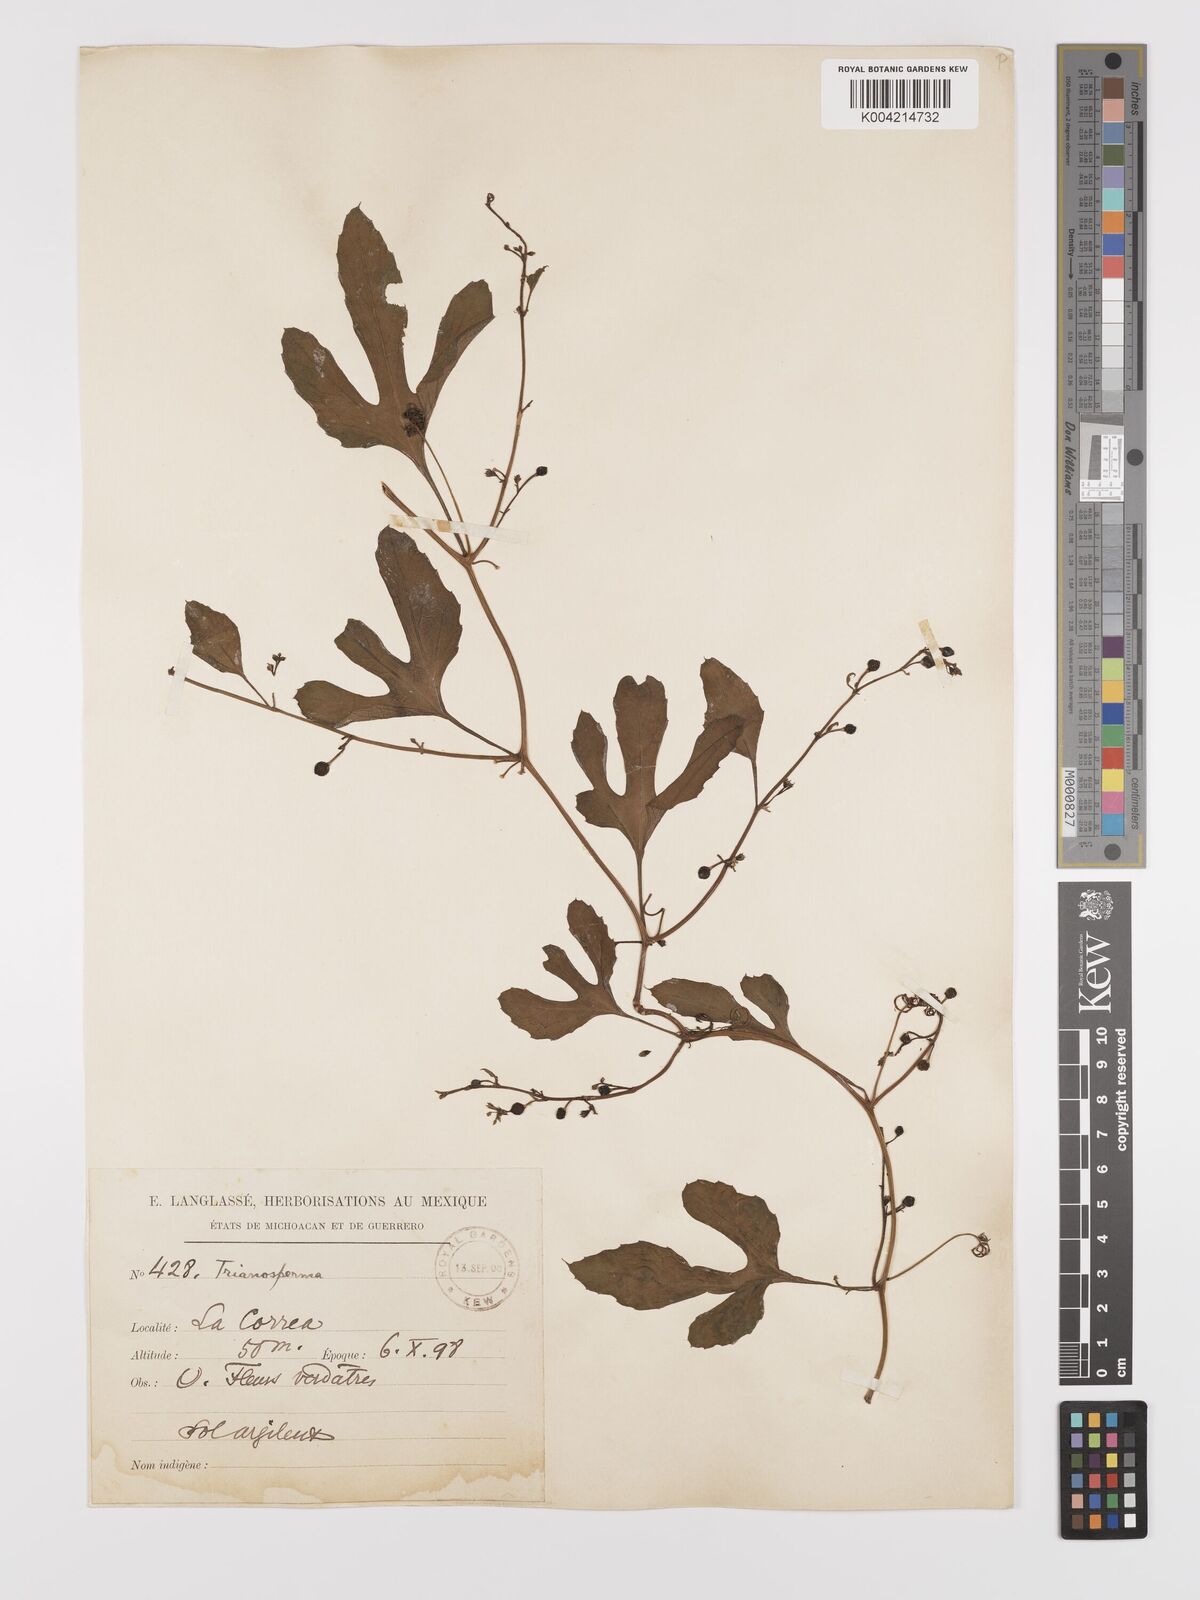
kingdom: Plantae
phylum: Tracheophyta
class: Magnoliopsida
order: Cucurbitales
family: Cucurbitaceae
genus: Cayaponia
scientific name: Cayaponia attenuata
